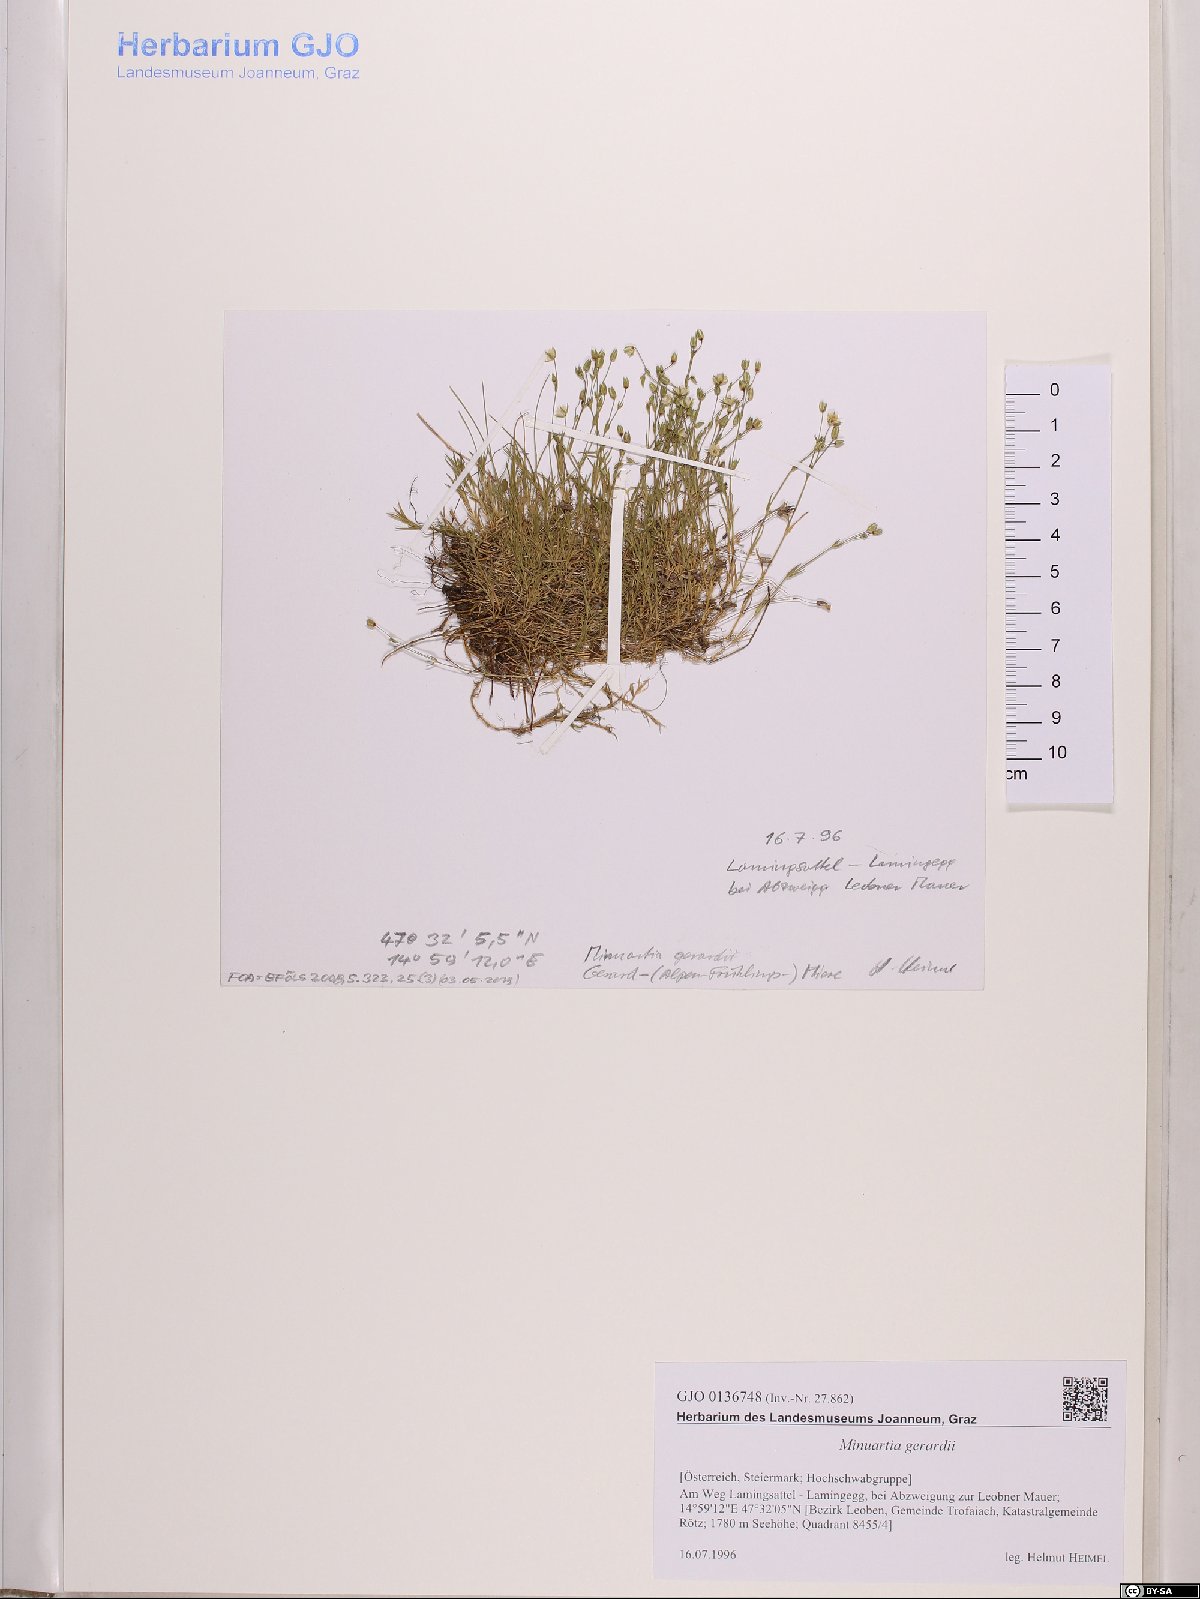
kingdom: Plantae
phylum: Tracheophyta
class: Magnoliopsida
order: Caryophyllales
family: Caryophyllaceae
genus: Sabulina
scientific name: Sabulina verna
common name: Spring sandwort
